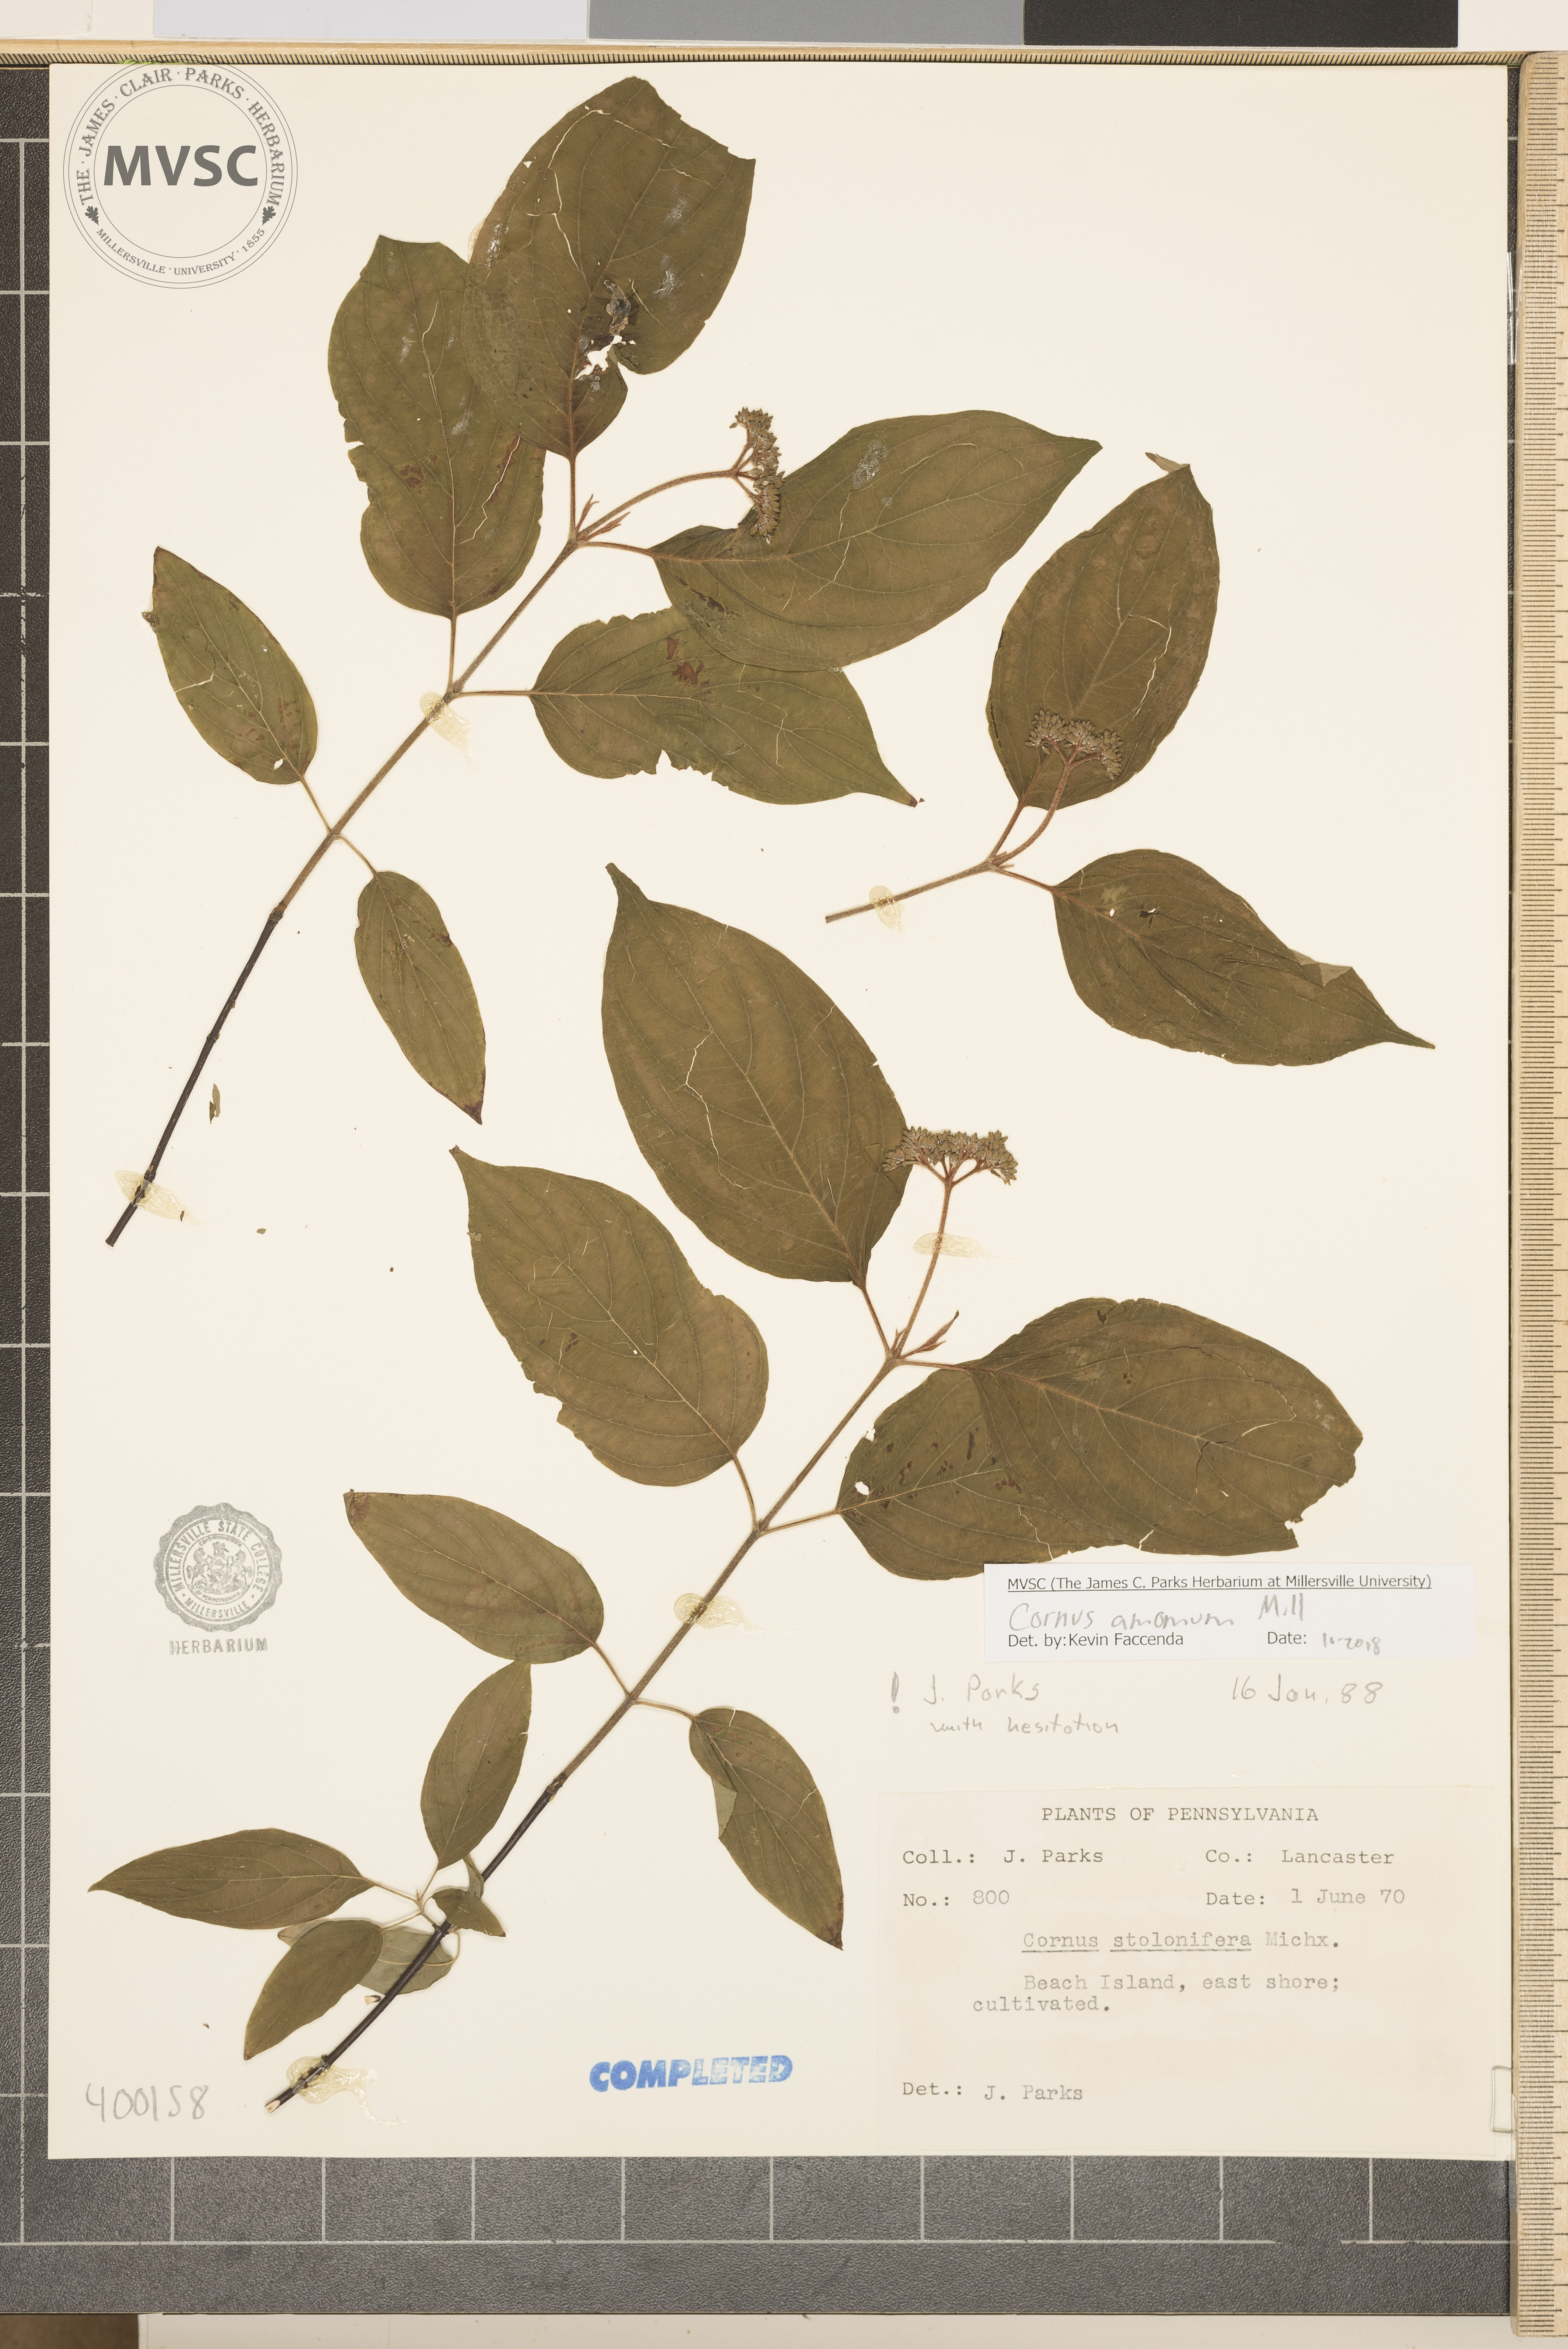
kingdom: Plantae
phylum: Tracheophyta
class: Magnoliopsida
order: Cornales
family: Cornaceae
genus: Cornus
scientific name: Cornus amomum
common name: red osier dogwood
